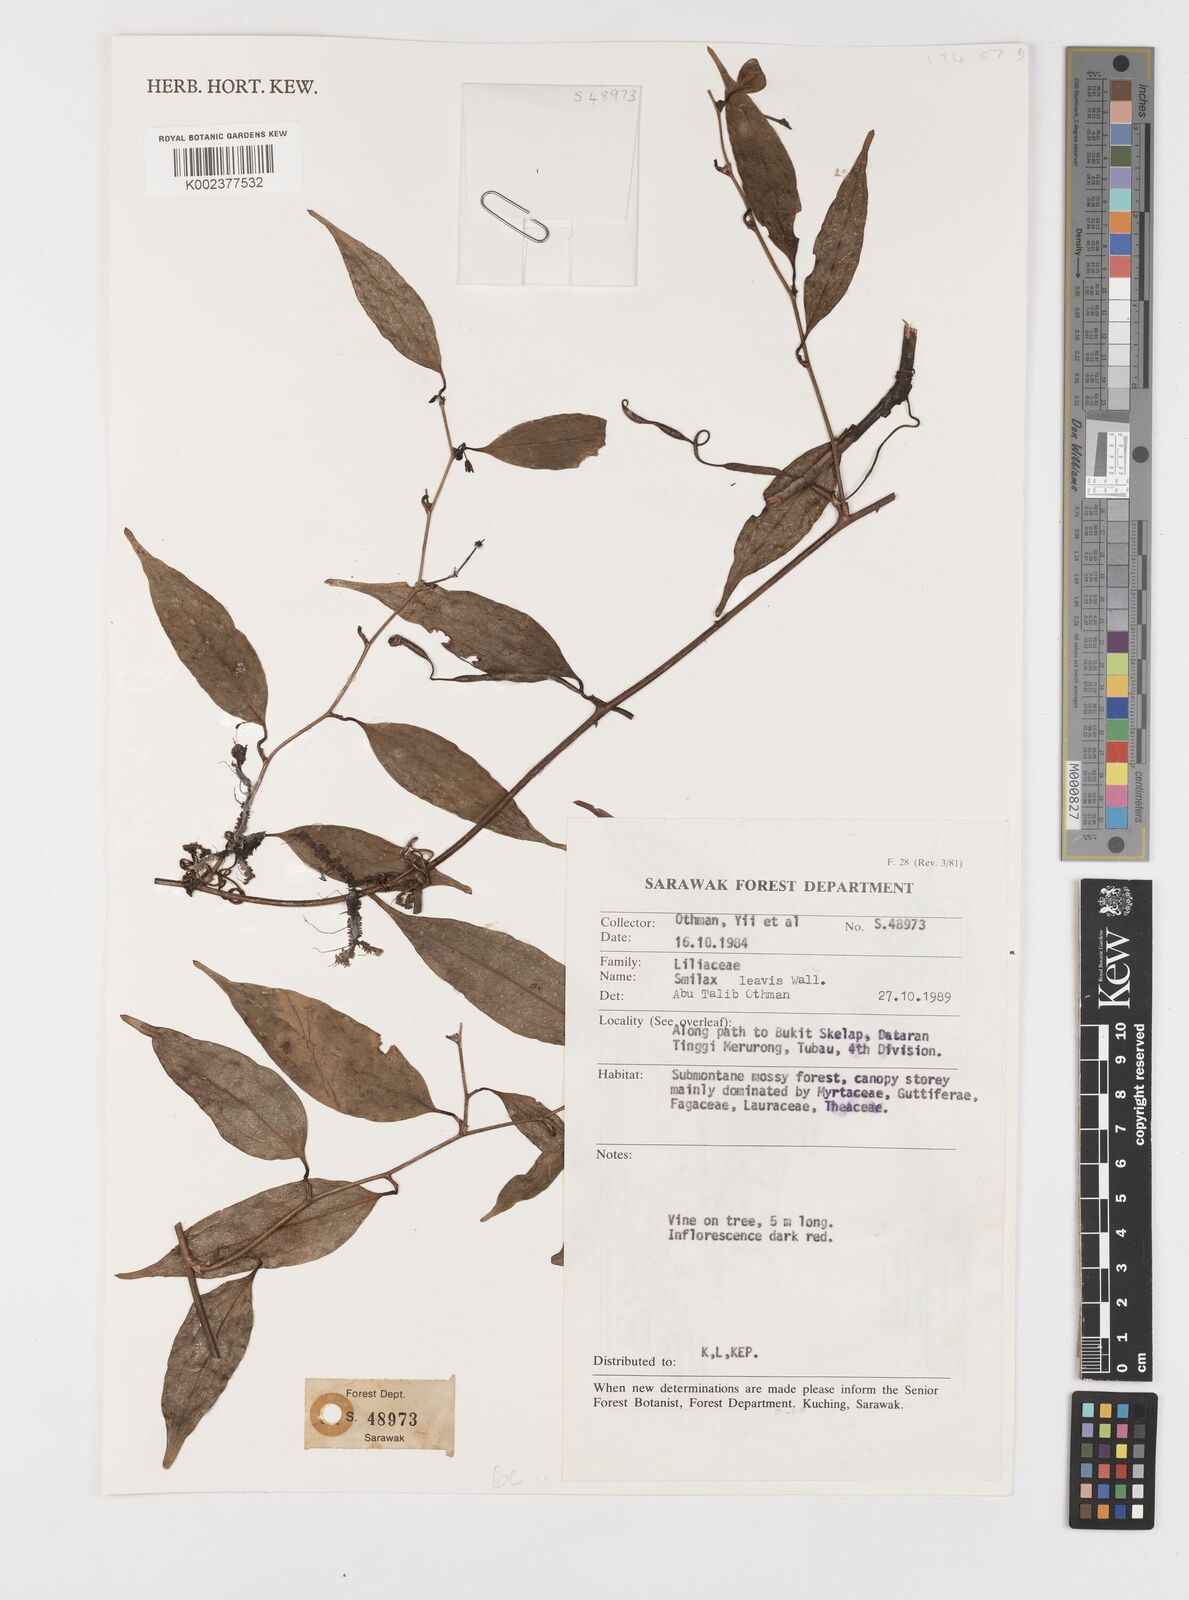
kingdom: Plantae
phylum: Tracheophyta
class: Liliopsida
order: Liliales
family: Smilacaceae
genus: Smilax
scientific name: Smilax laevis
